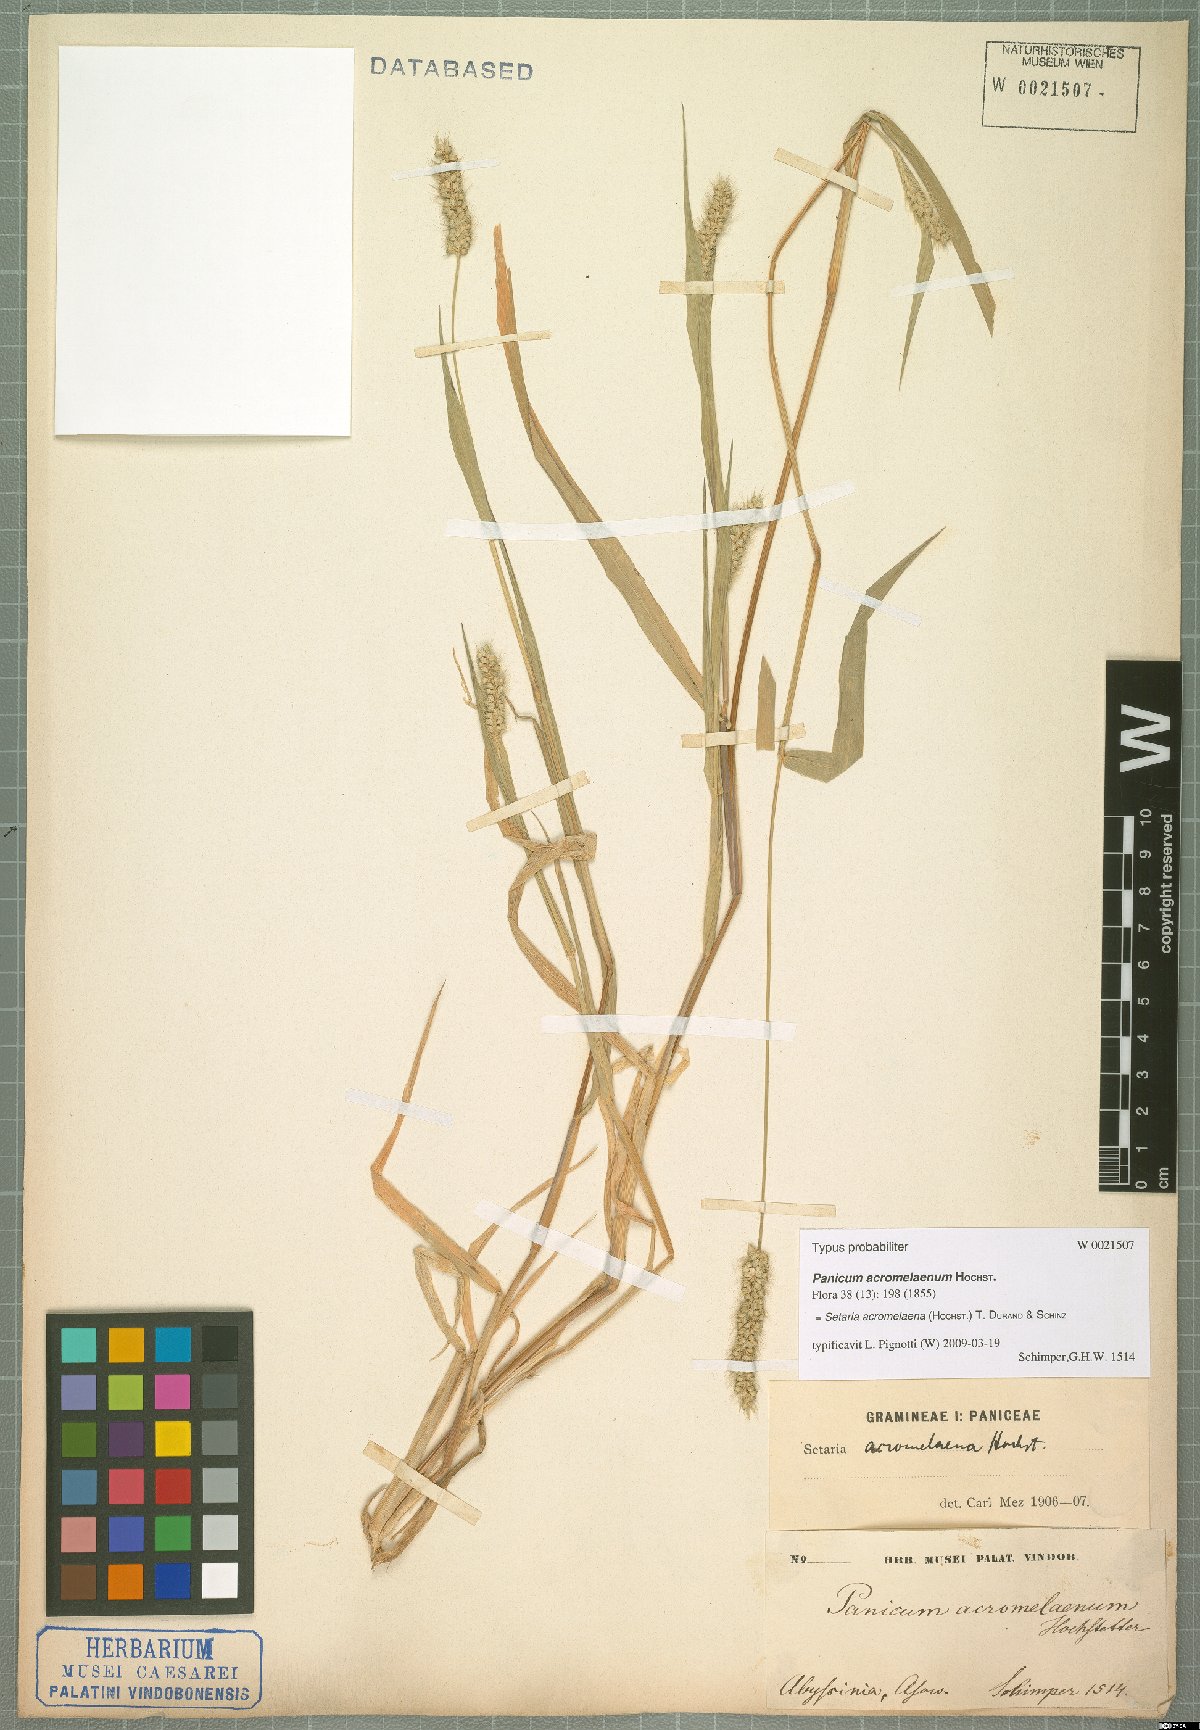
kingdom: Plantae
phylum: Tracheophyta
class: Liliopsida
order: Poales
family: Poaceae
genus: Setaria
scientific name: Setaria nigrirostris
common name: Black bristlegrass
